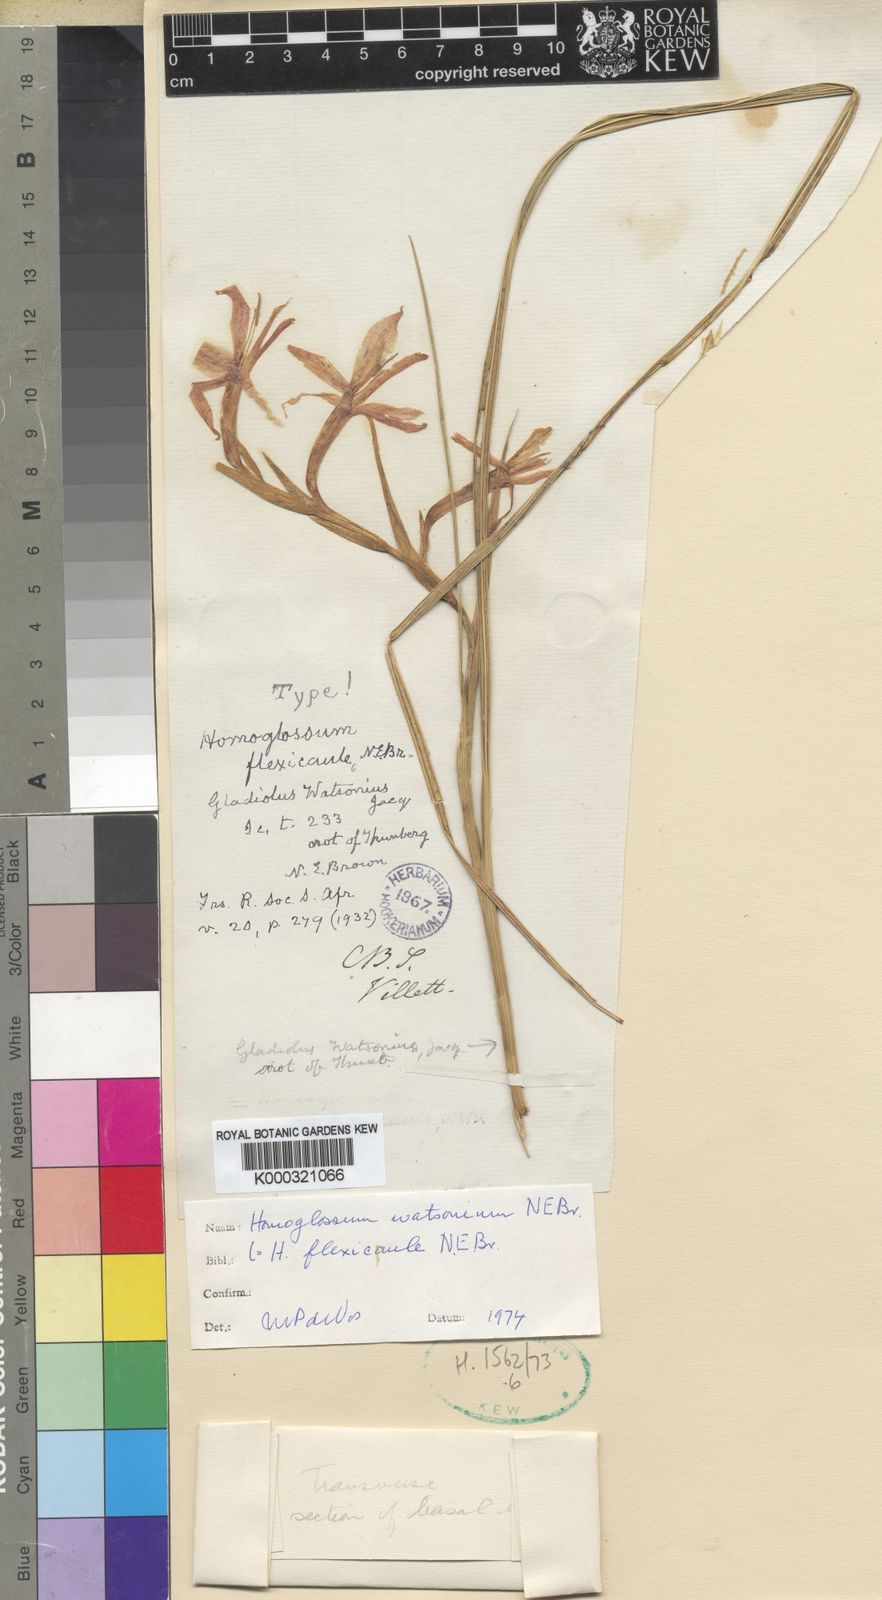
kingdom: Plantae
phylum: Tracheophyta
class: Liliopsida
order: Asparagales
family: Iridaceae
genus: Gladiolus
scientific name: Gladiolus watsonius
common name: Red afrikaner
